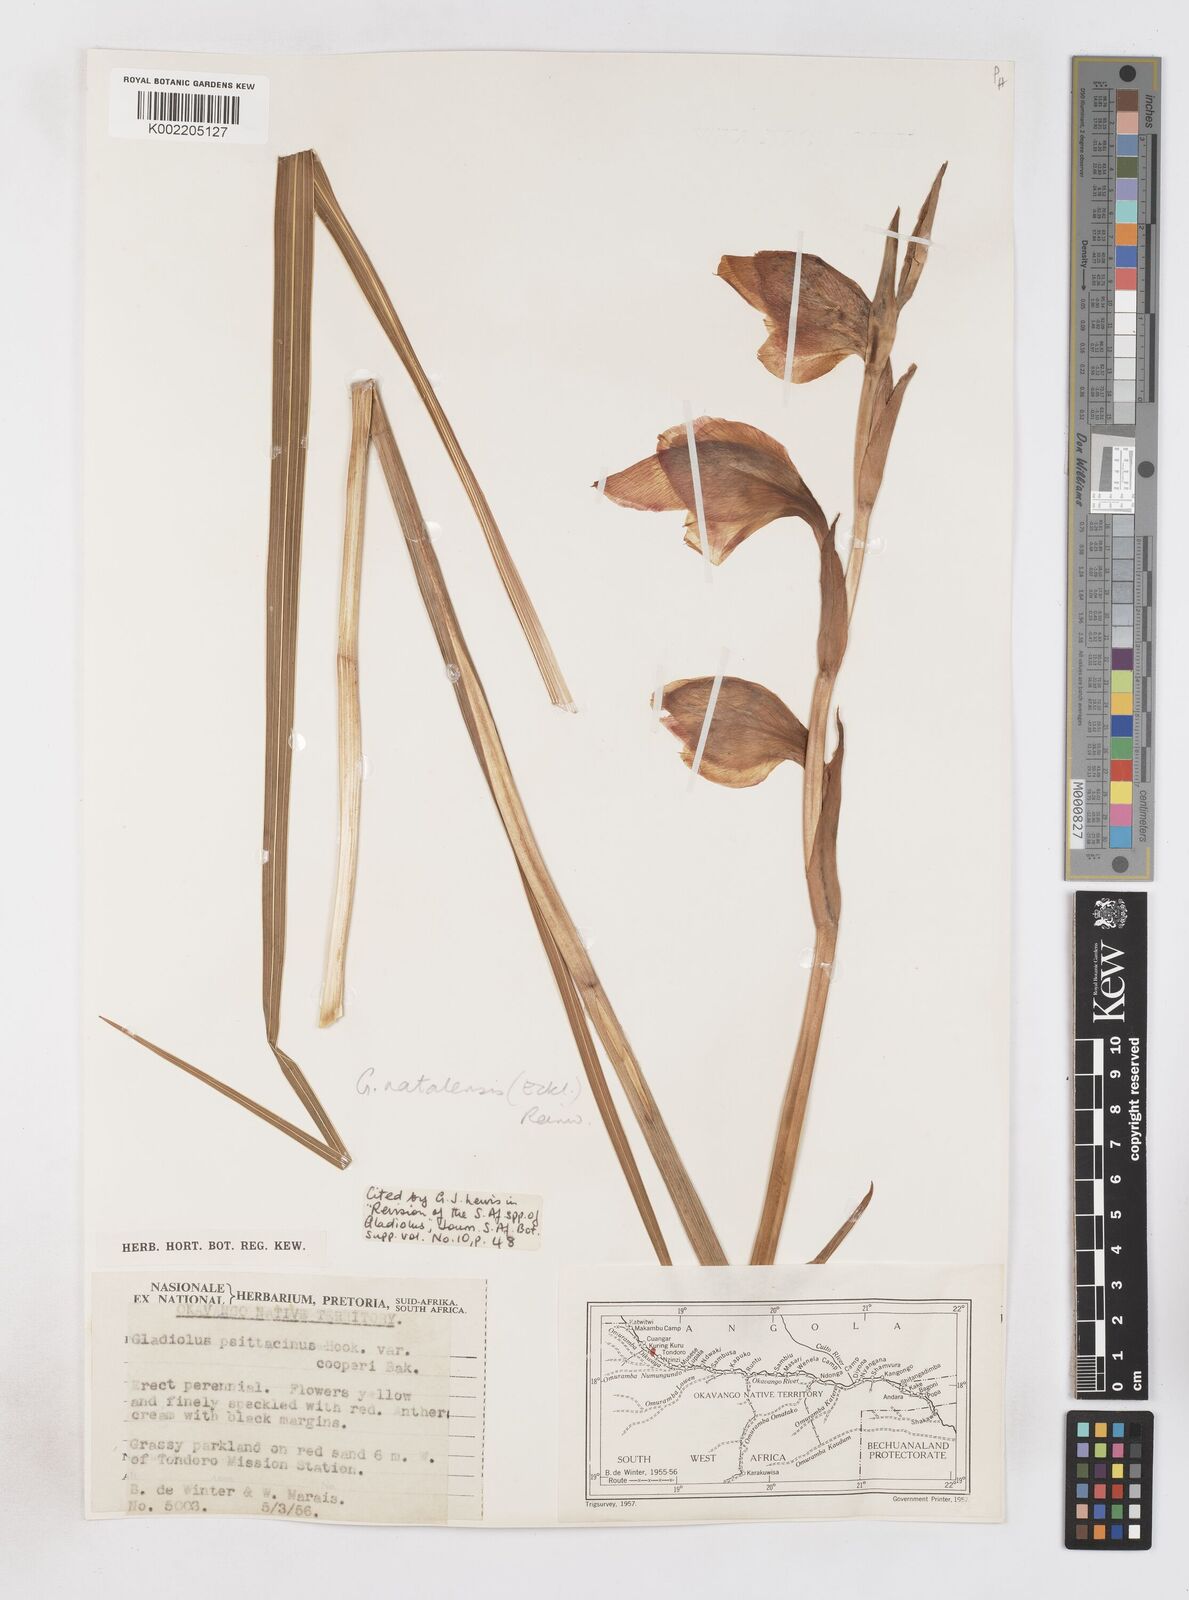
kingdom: Plantae
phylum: Tracheophyta
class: Liliopsida
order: Asparagales
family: Iridaceae
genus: Gladiolus
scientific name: Gladiolus dalenii
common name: Cornflag
